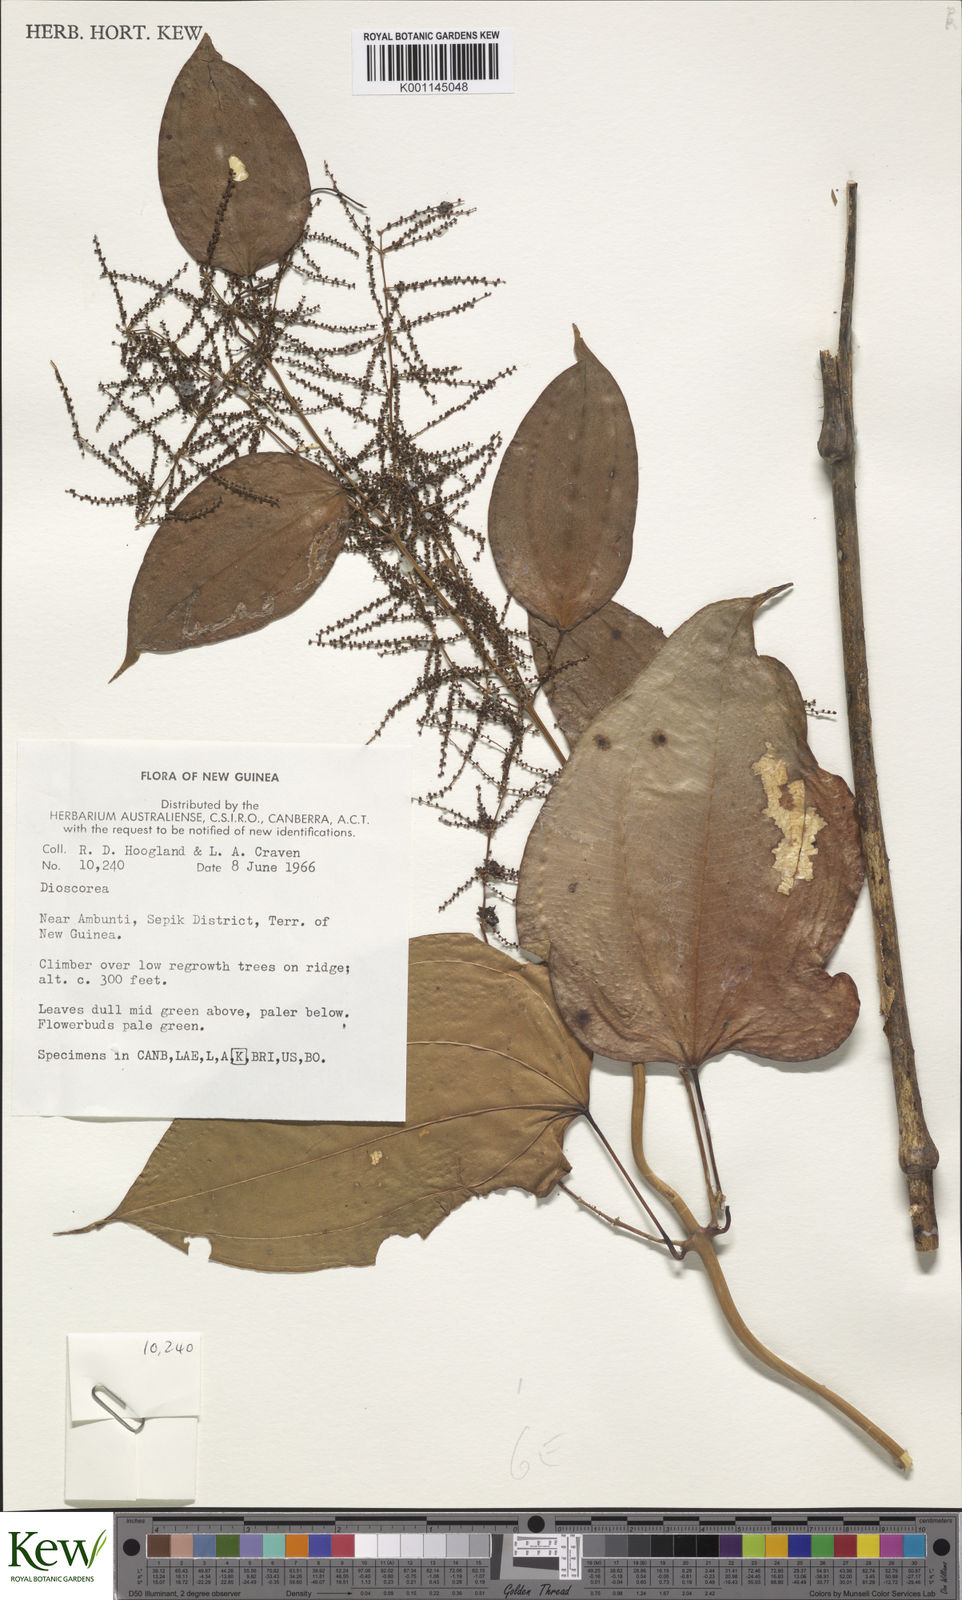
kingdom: Plantae
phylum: Tracheophyta
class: Liliopsida
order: Dioscoreales
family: Dioscoreaceae
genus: Dioscorea
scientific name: Dioscorea
